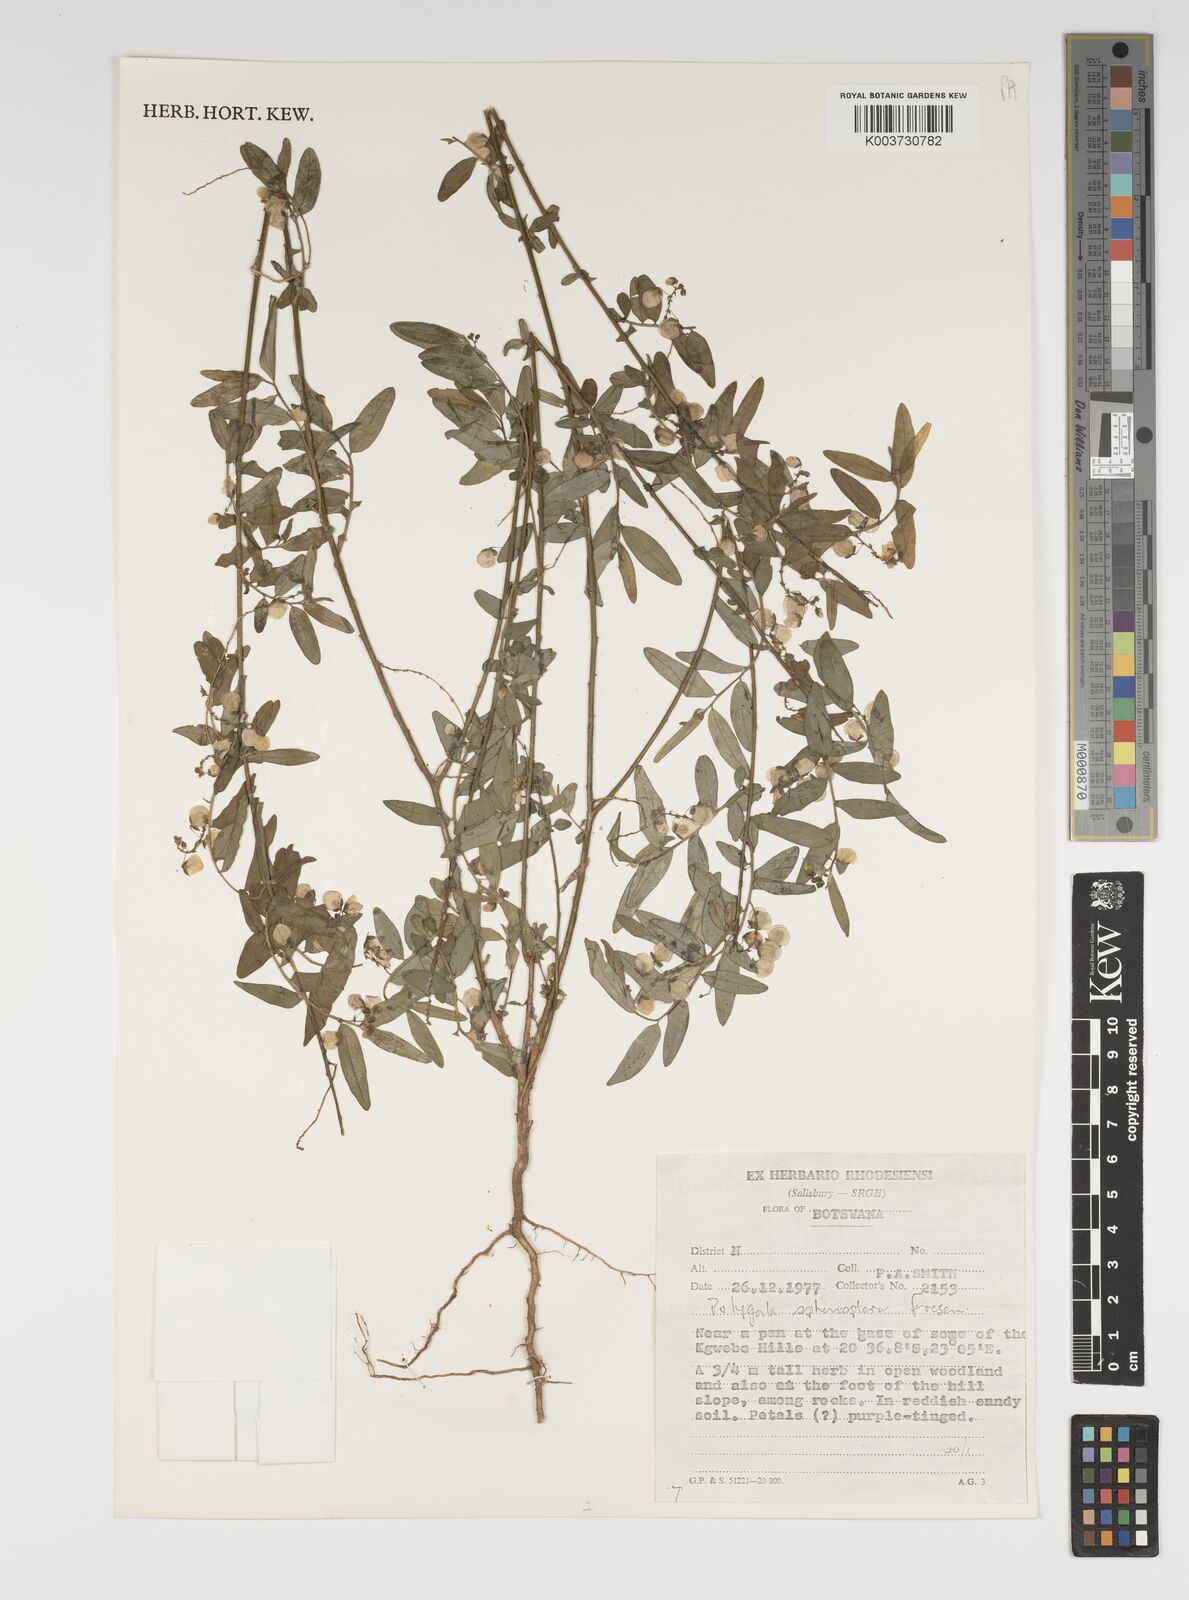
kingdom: Plantae
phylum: Tracheophyta
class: Magnoliopsida
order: Fabales
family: Polygalaceae
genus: Polygala
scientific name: Polygala sphenoptera
